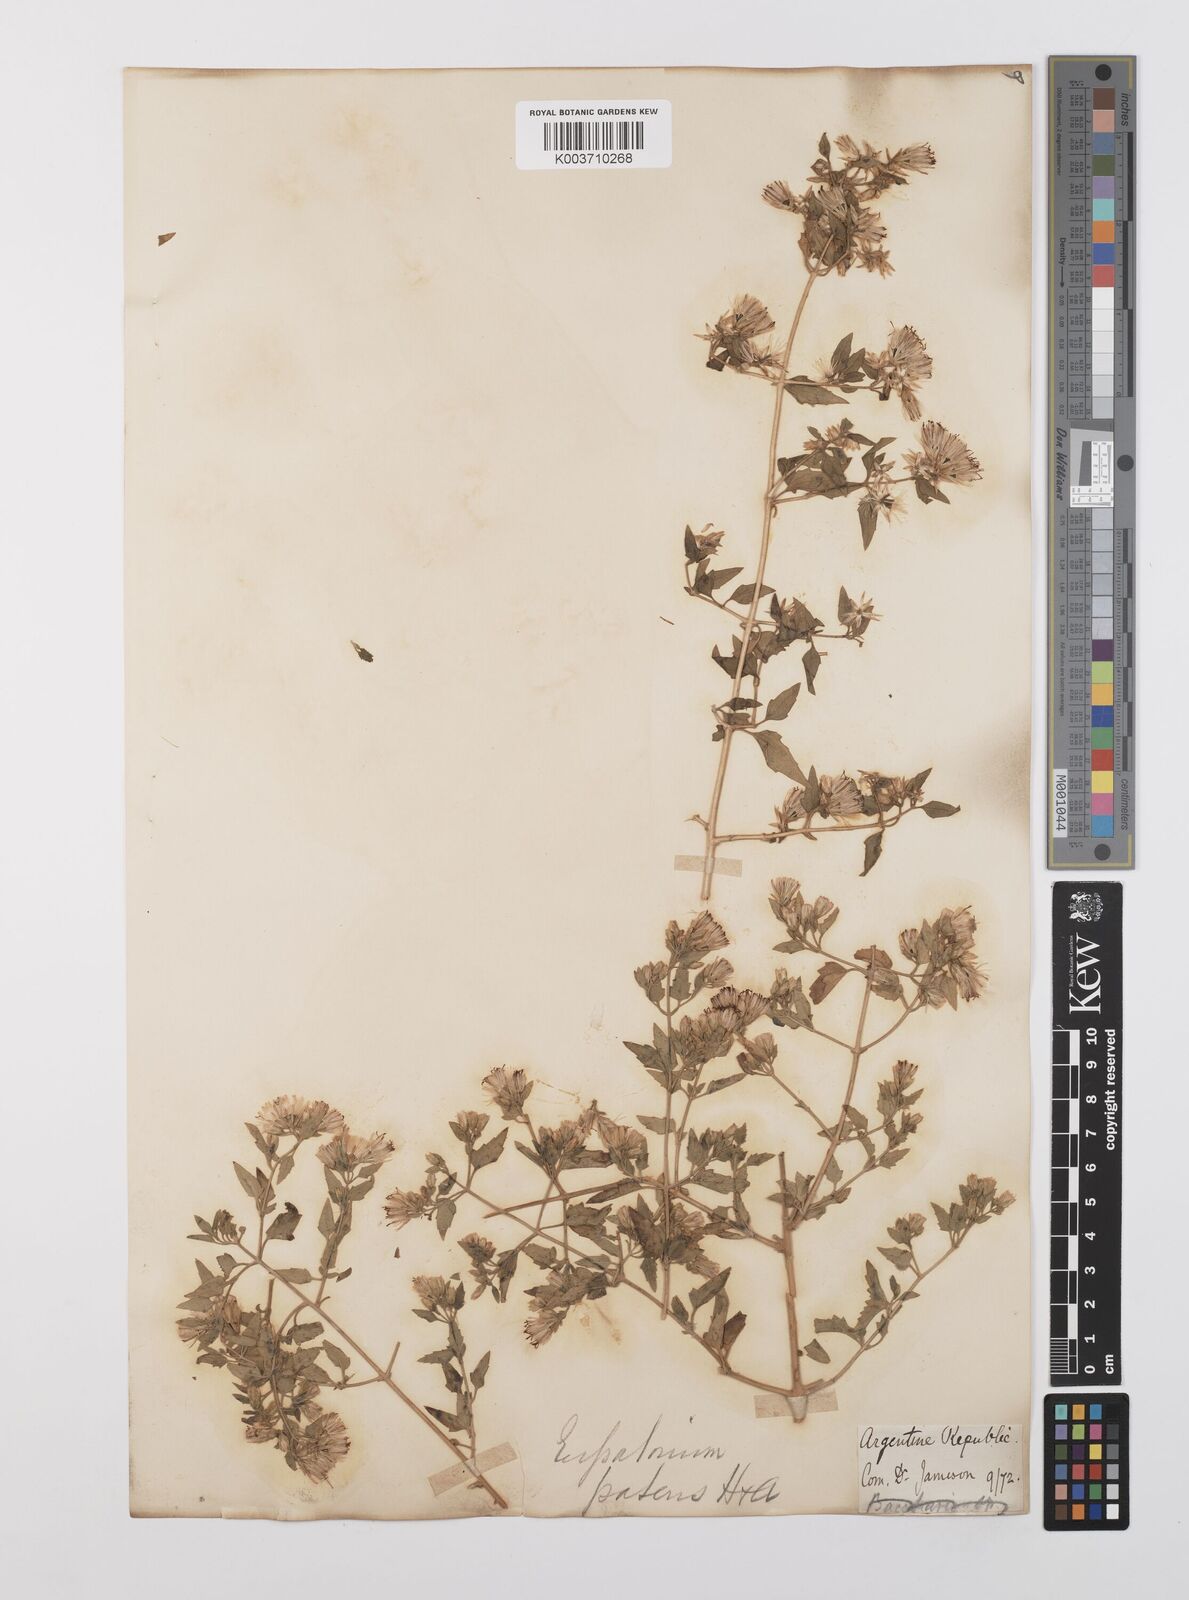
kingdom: Plantae
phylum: Tracheophyta
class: Magnoliopsida
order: Asterales
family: Asteraceae
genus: Austrobrickellia
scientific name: Austrobrickellia patens
